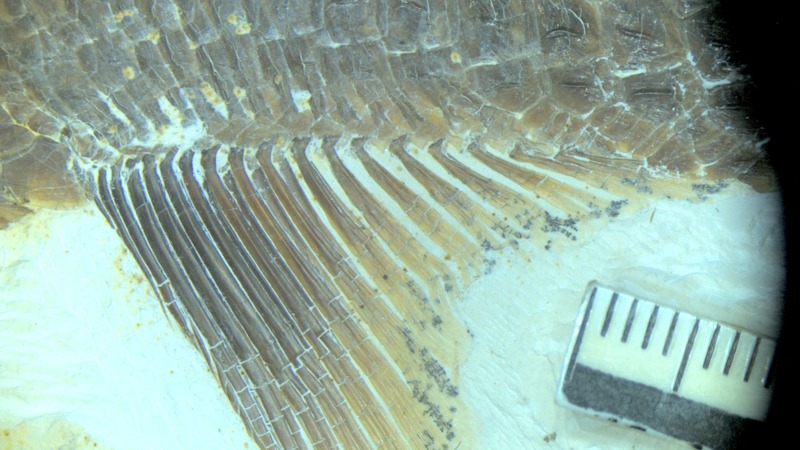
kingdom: Animalia
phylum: Chordata
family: Aspidorhynchidae
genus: Aspidorhynchus
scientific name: Aspidorhynchus sanzenbacheri
